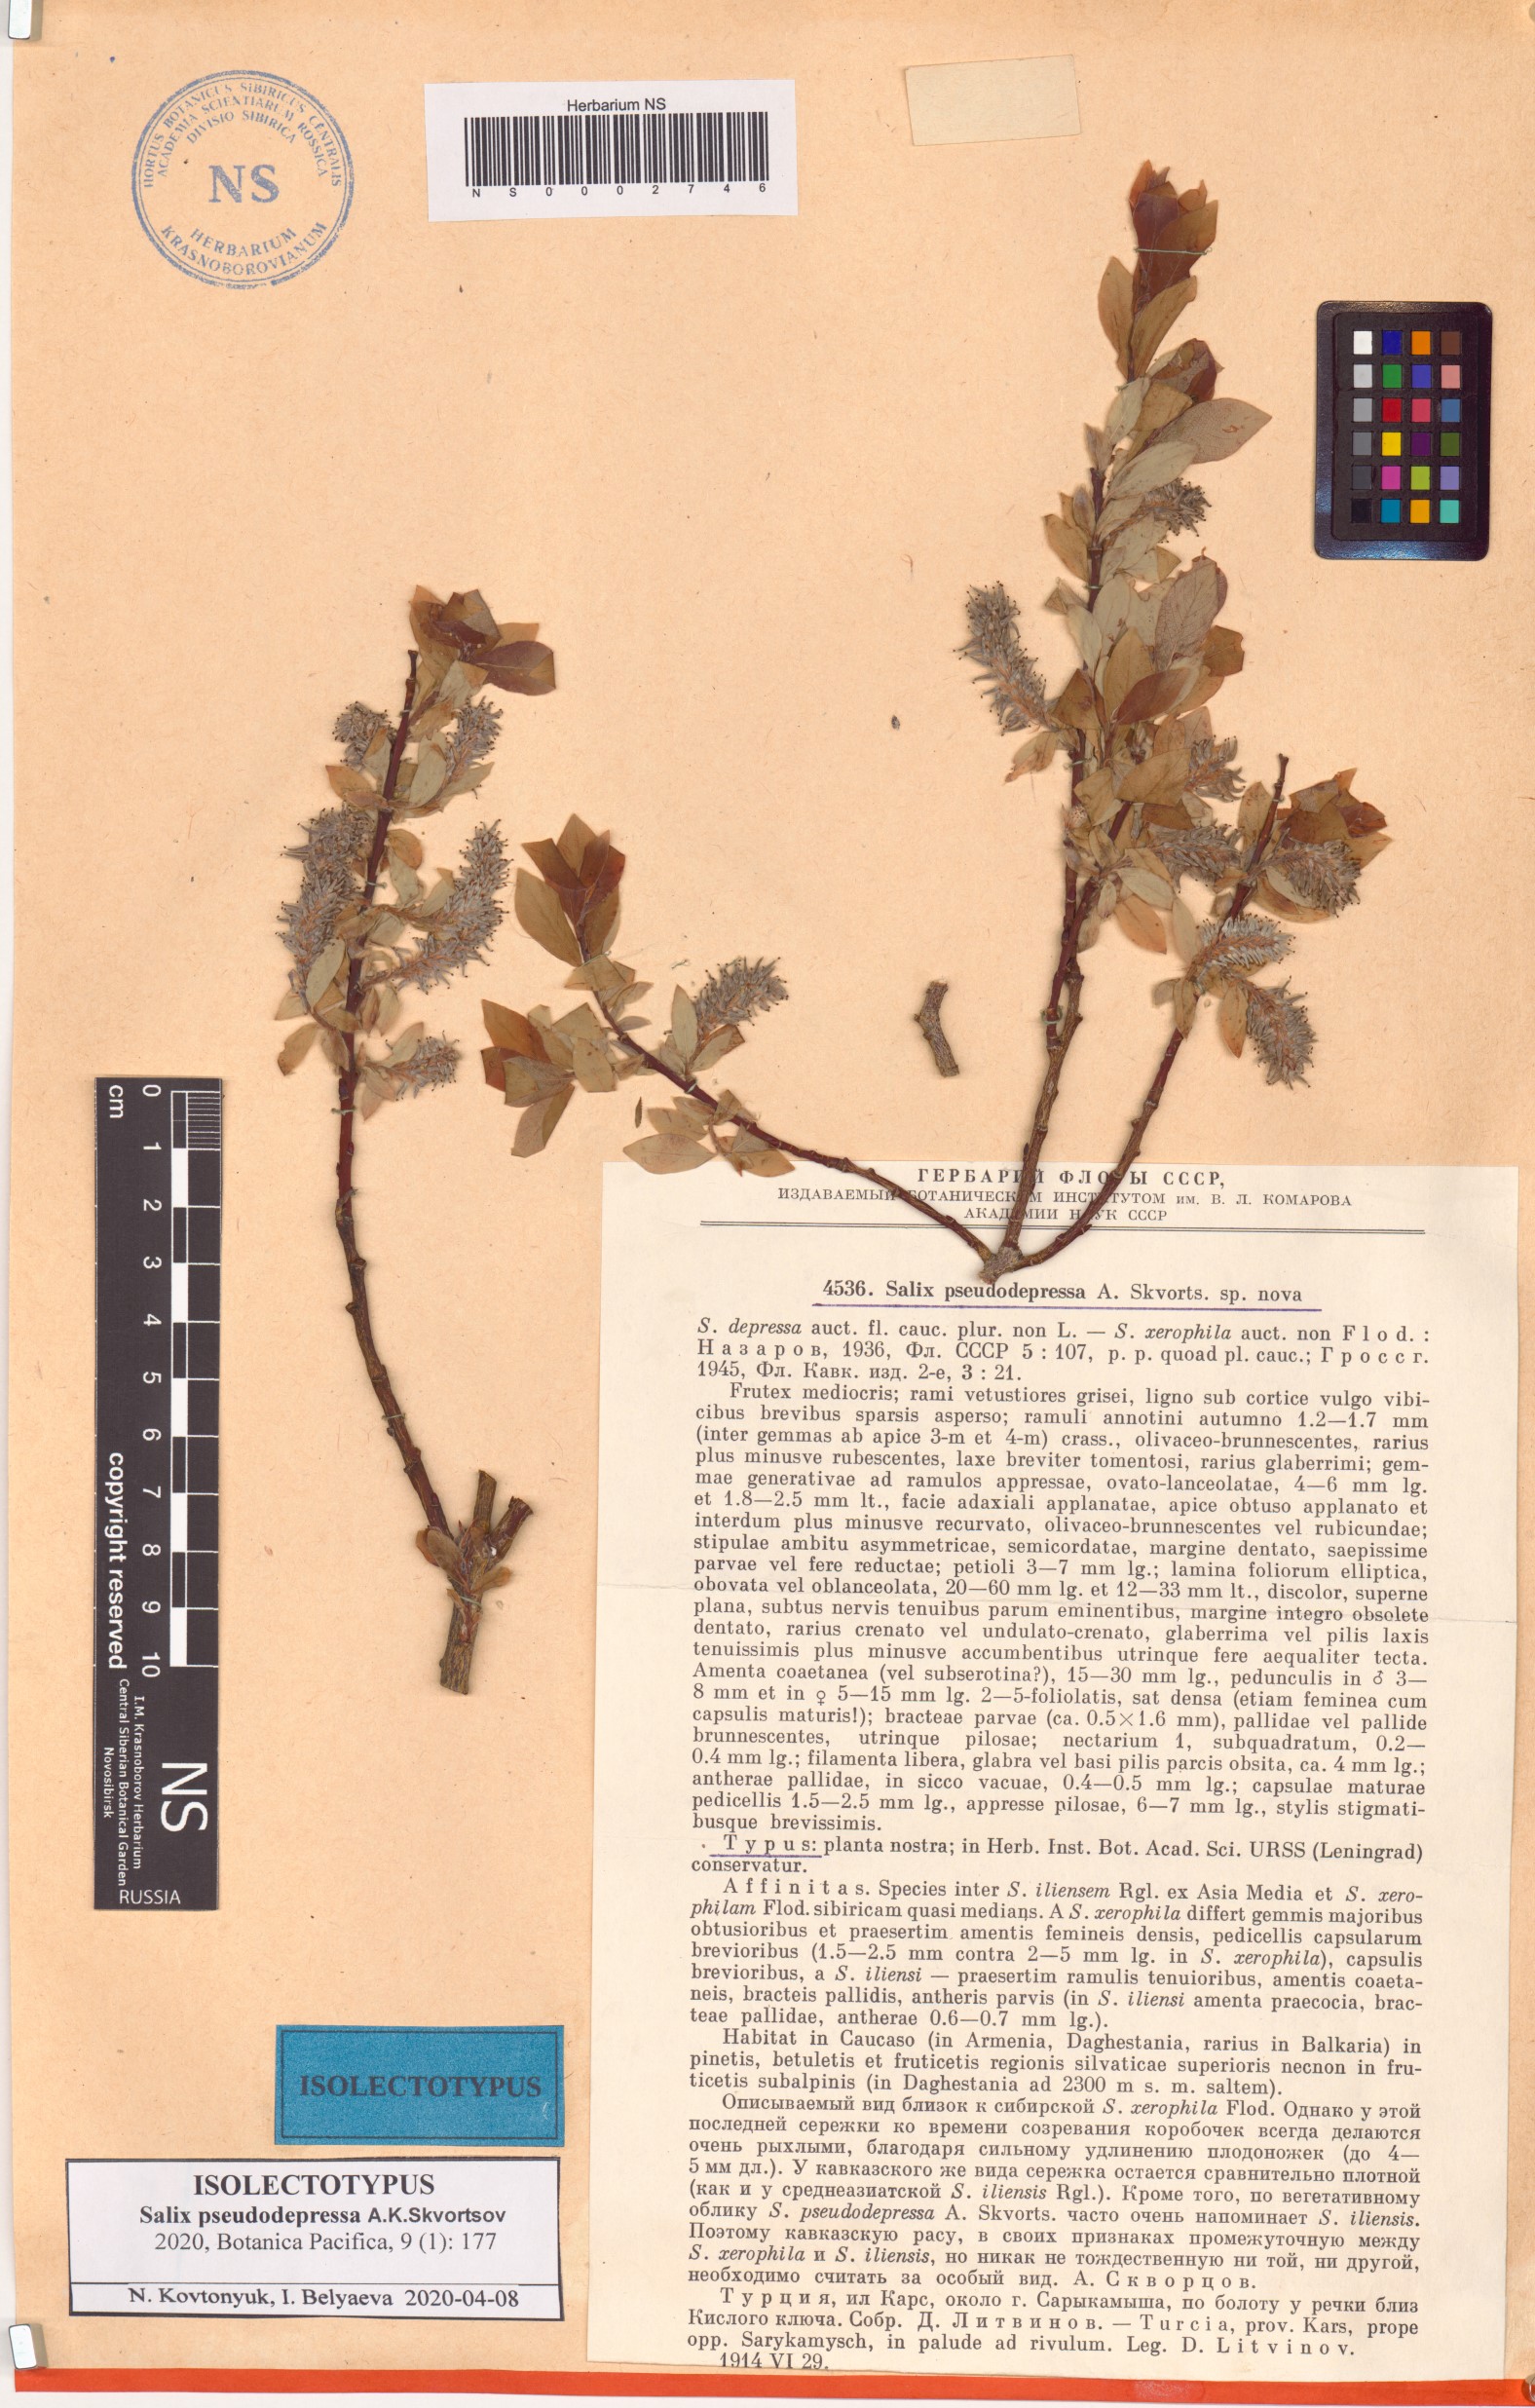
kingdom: Plantae
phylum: Tracheophyta
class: Magnoliopsida
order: Malpighiales
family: Salicaceae
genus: Salix
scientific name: Salix pseudodepressa
